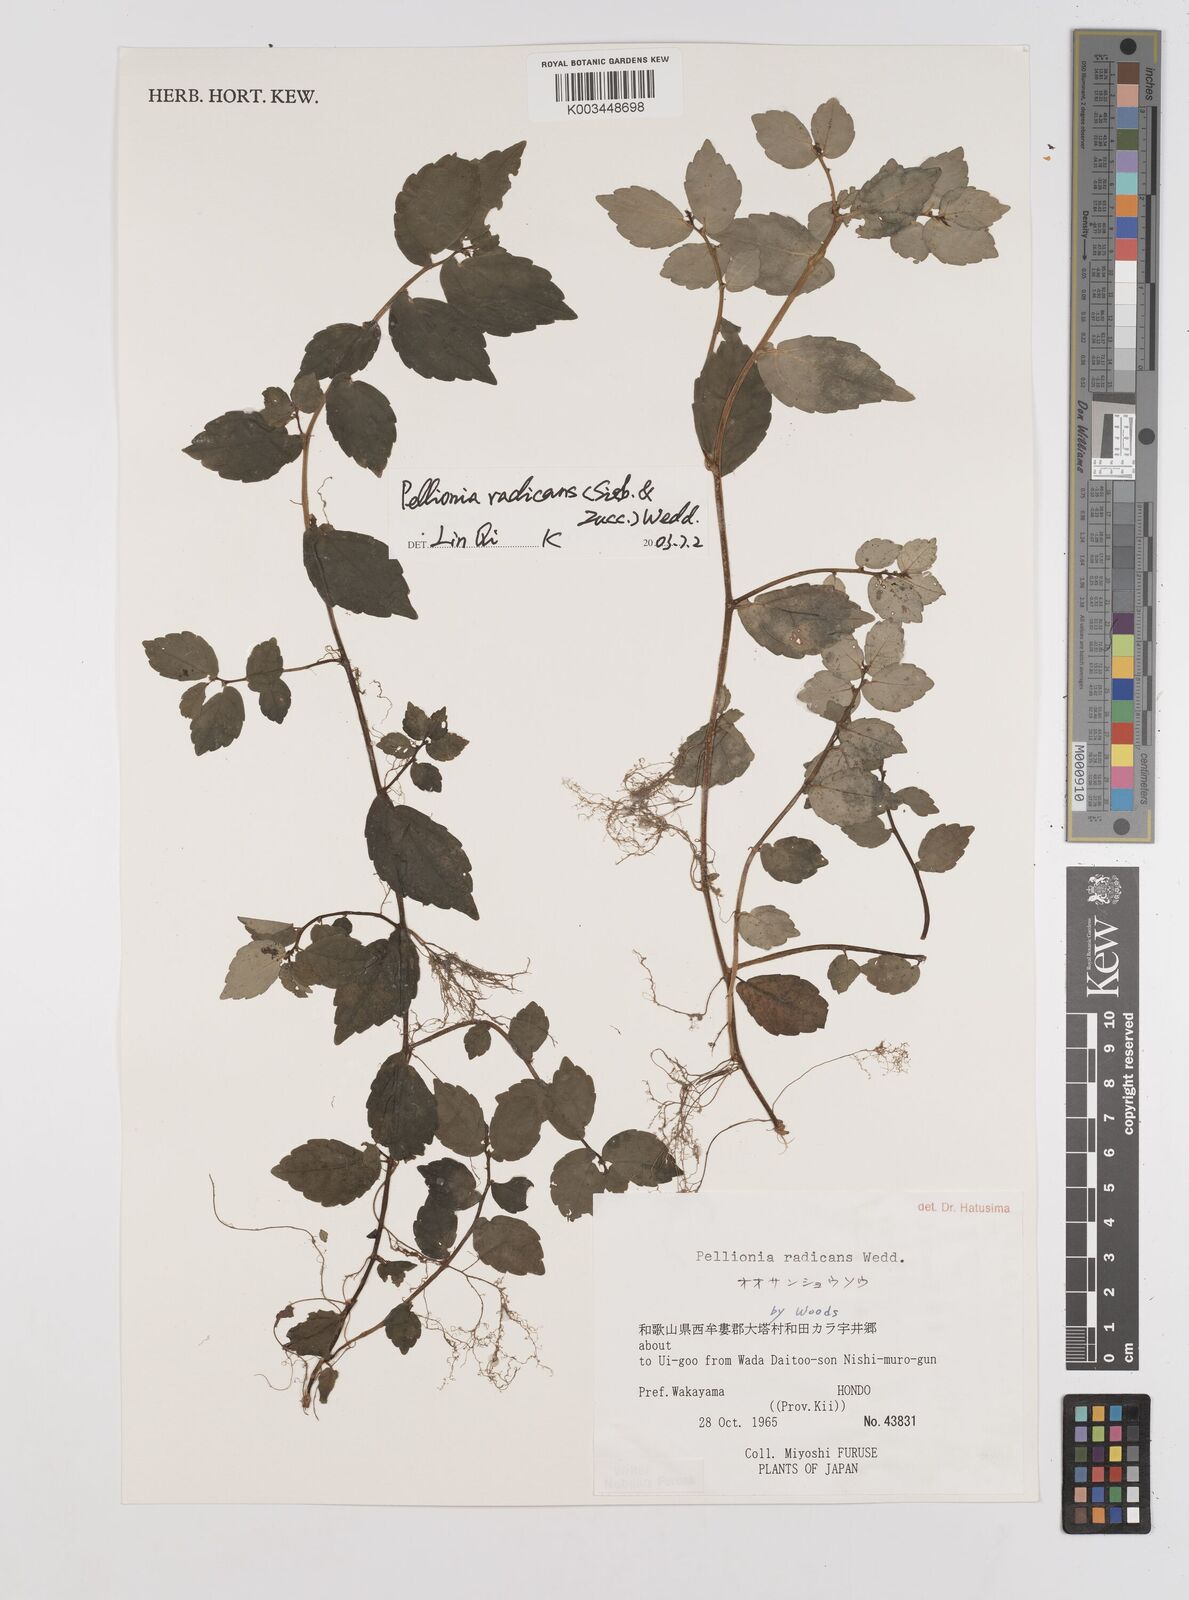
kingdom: Plantae
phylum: Tracheophyta
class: Magnoliopsida
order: Rosales
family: Urticaceae
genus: Elatostema
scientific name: Elatostema radicans
